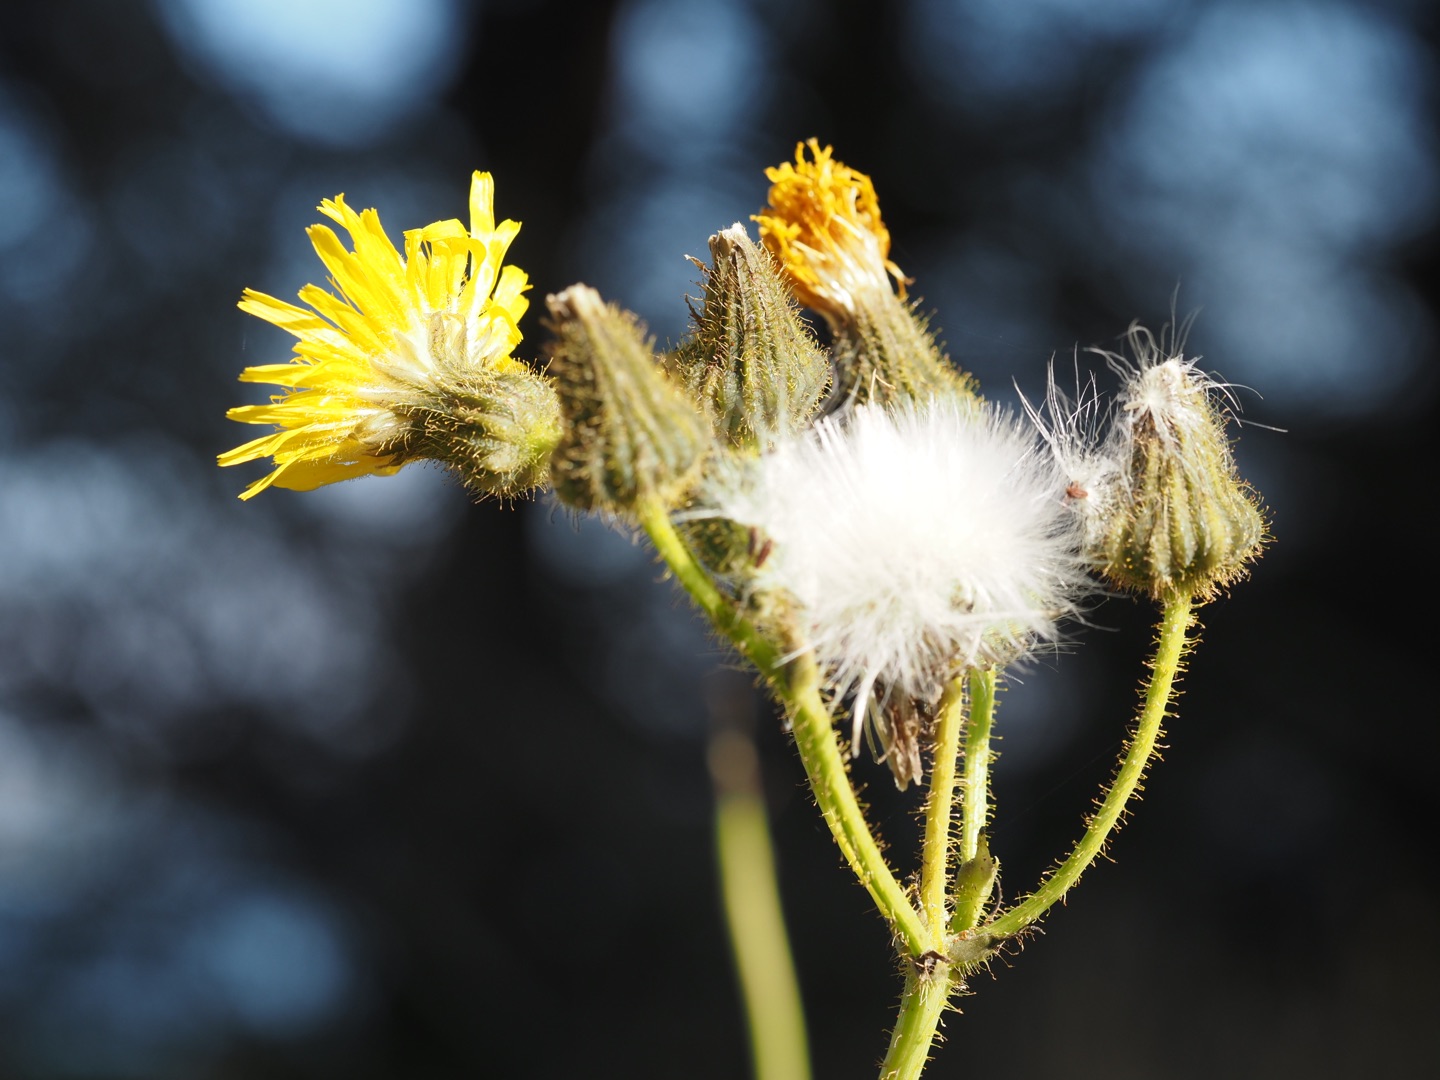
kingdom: Plantae
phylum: Tracheophyta
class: Magnoliopsida
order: Asterales
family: Asteraceae
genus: Sonchus
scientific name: Sonchus arvensis
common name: Ager-svinemælk
